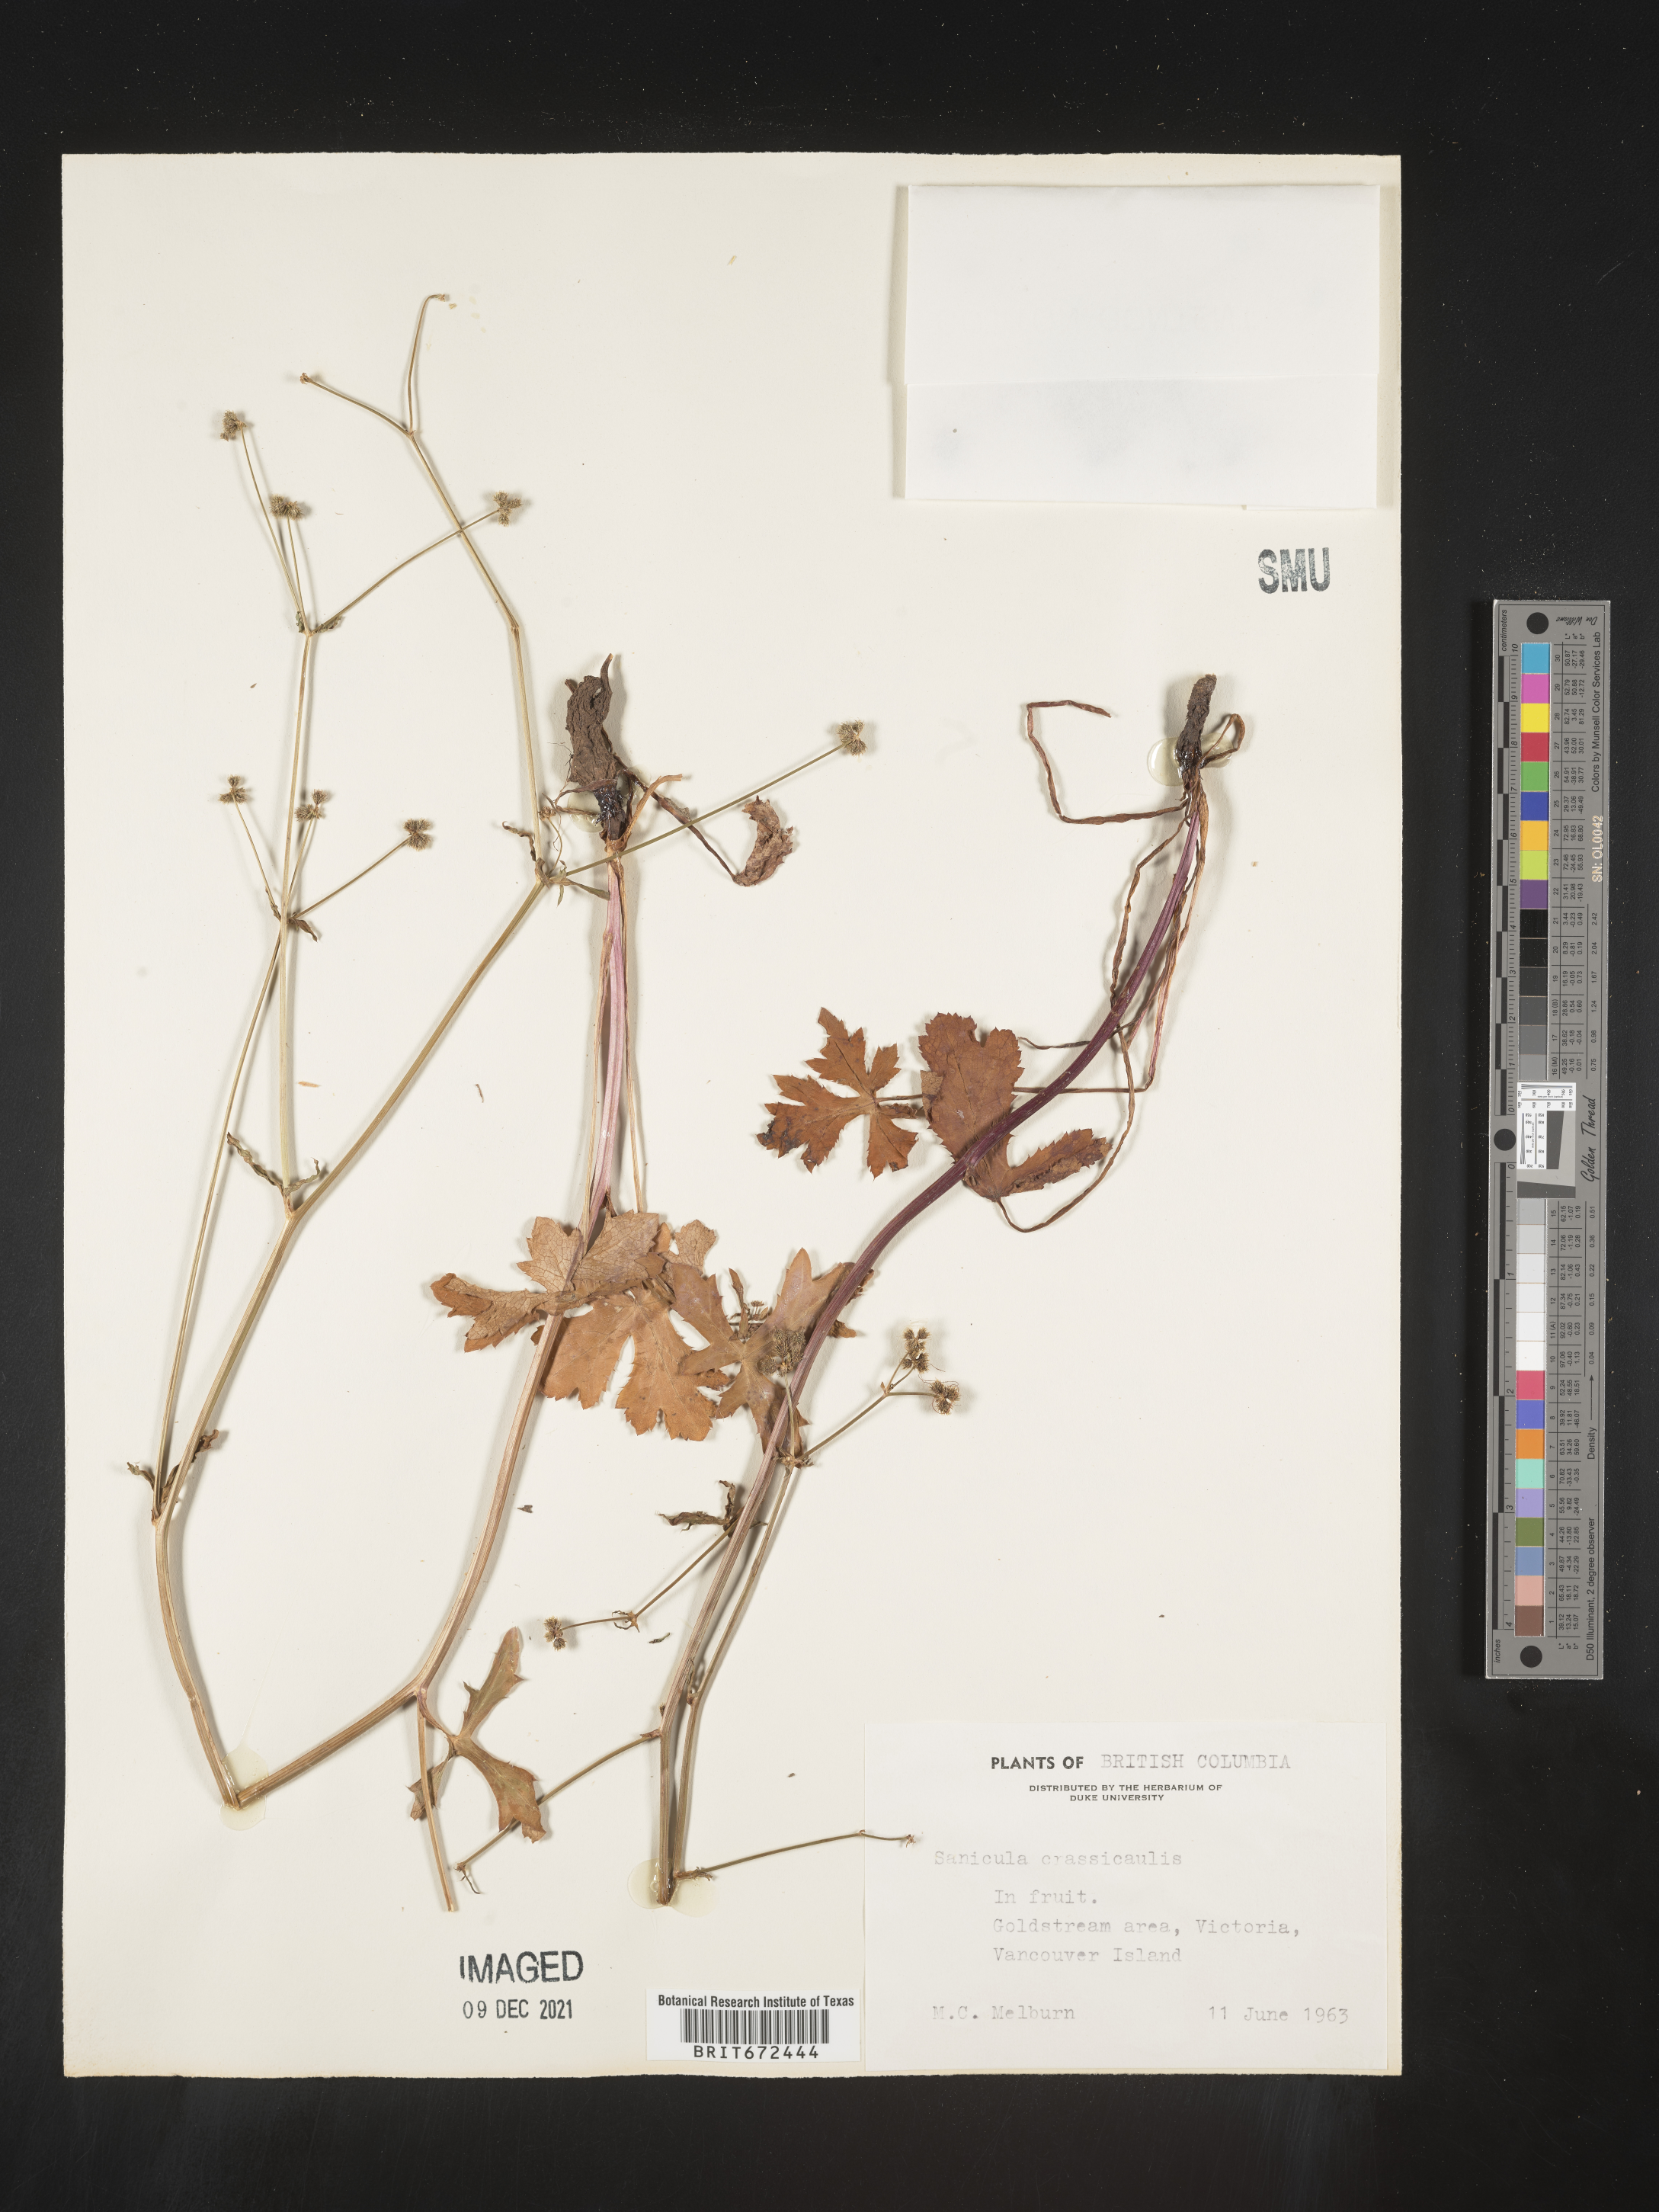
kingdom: Plantae
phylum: Tracheophyta
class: Magnoliopsida
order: Apiales
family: Apiaceae
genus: Sanicula
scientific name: Sanicula crassicaulis
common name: Western snakeroot
